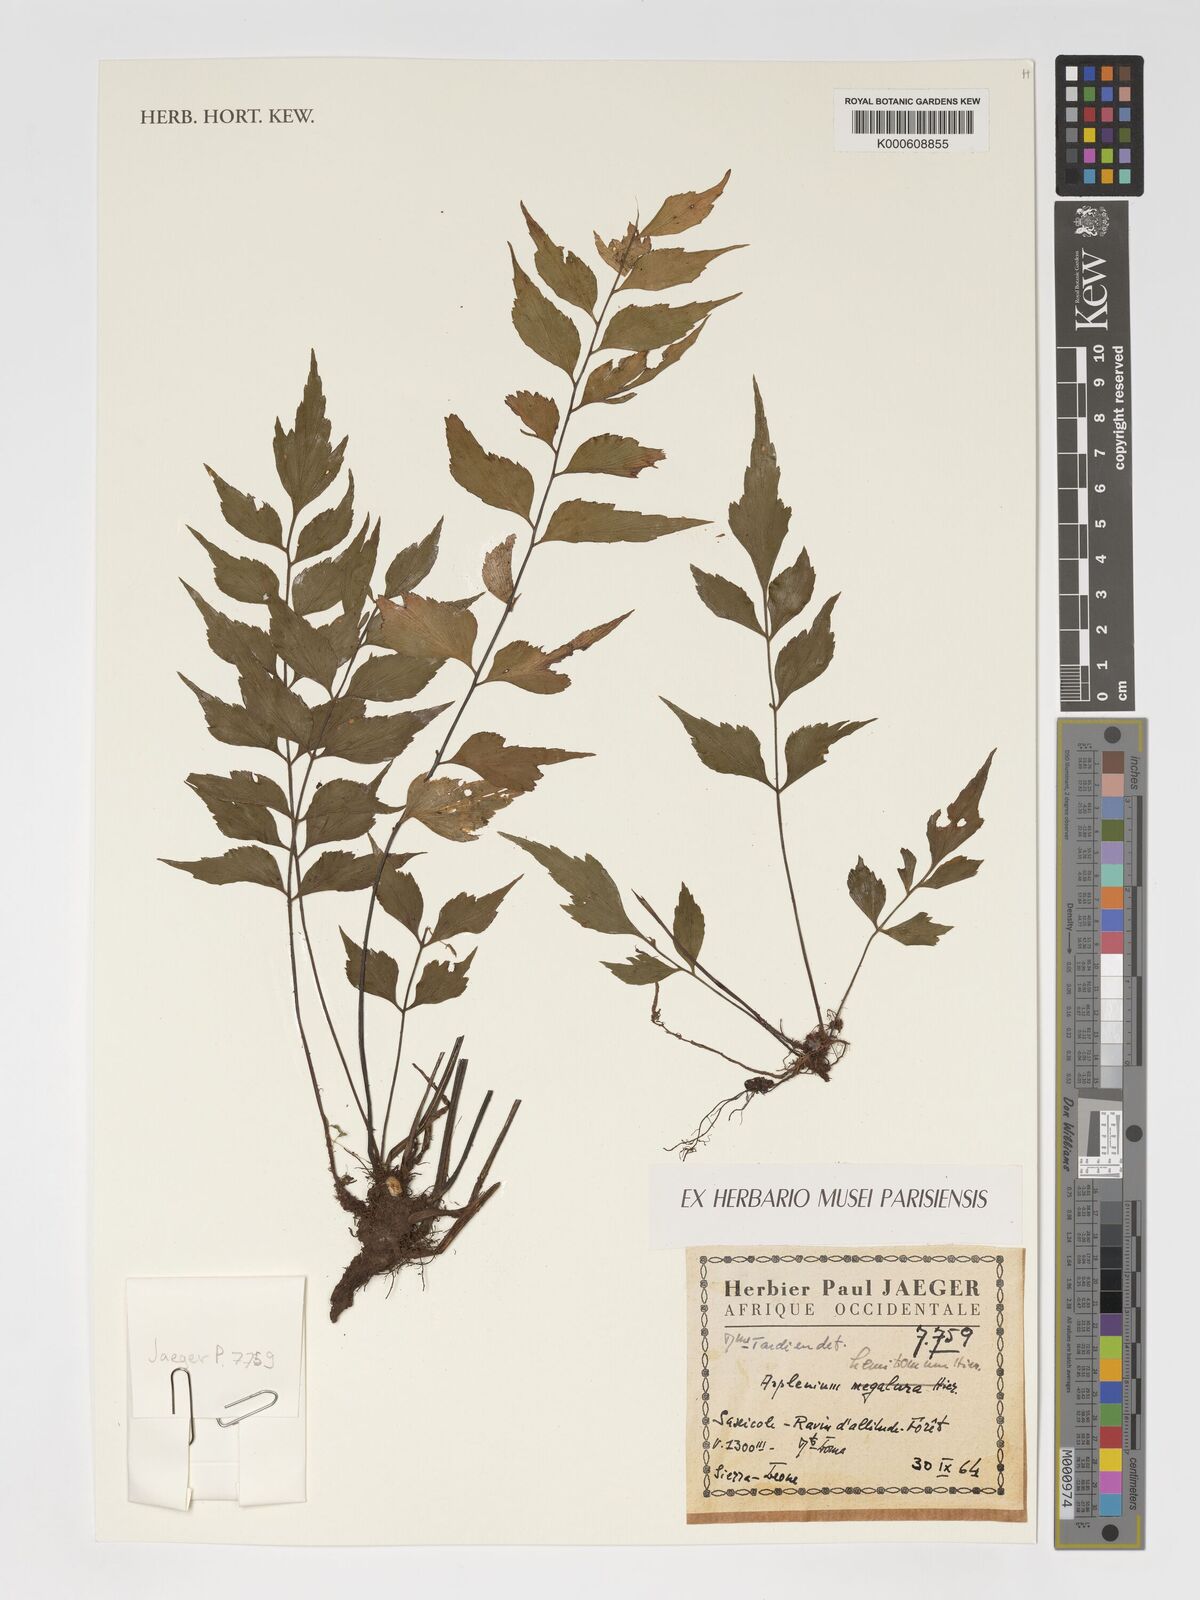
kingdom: Plantae
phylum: Tracheophyta
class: Polypodiopsida
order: Polypodiales
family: Aspleniaceae
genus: Asplenium
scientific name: Asplenium megalura
